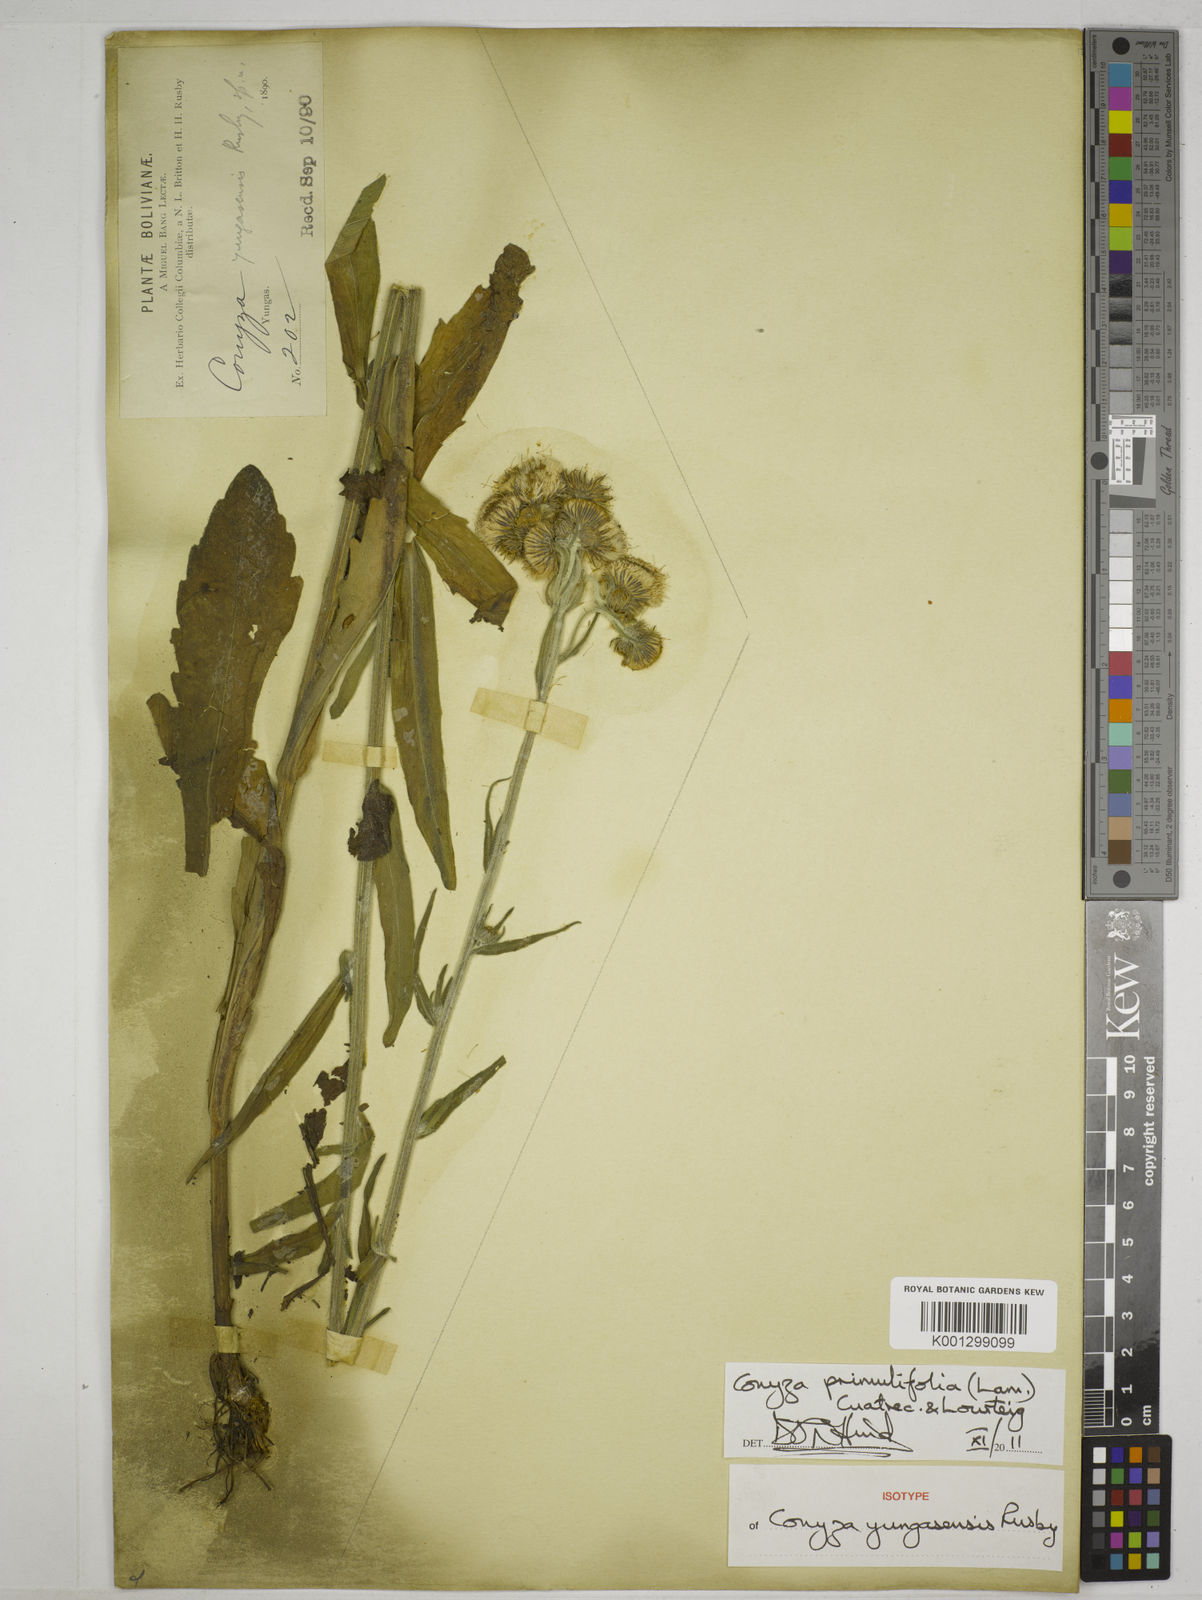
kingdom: Plantae
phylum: Tracheophyta
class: Magnoliopsida
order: Asterales
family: Asteraceae
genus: Conyza
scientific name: Conyza
